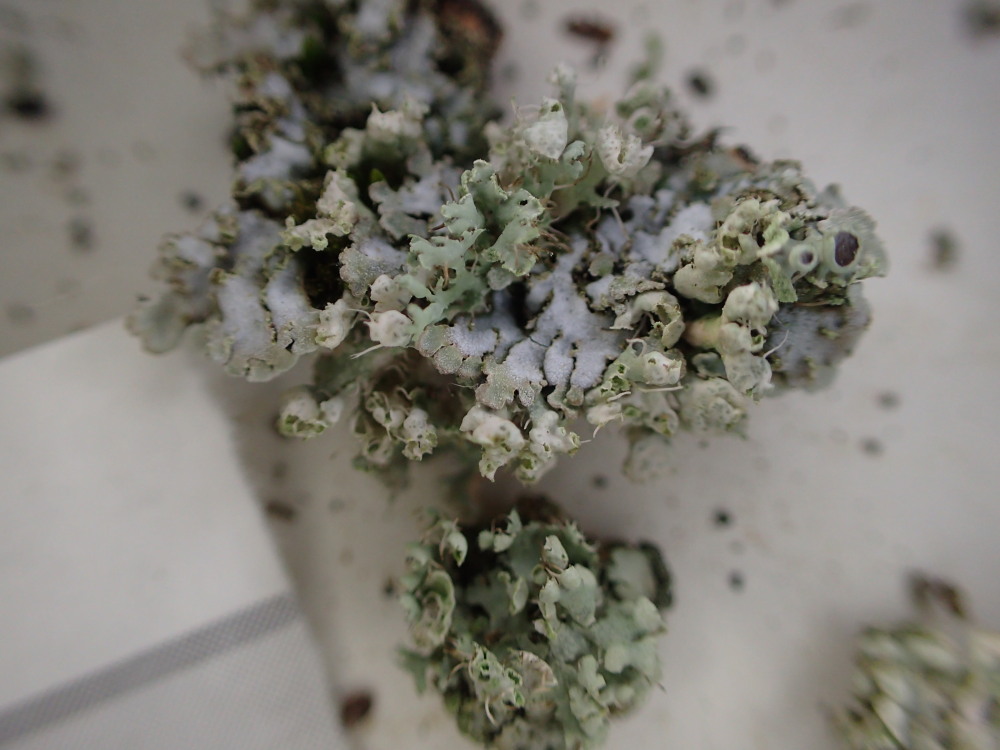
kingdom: Fungi
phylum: Ascomycota
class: Lecanoromycetes
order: Caliciales
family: Physciaceae
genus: Physcia
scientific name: Physcia adscendens
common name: hætte-rosetlav
